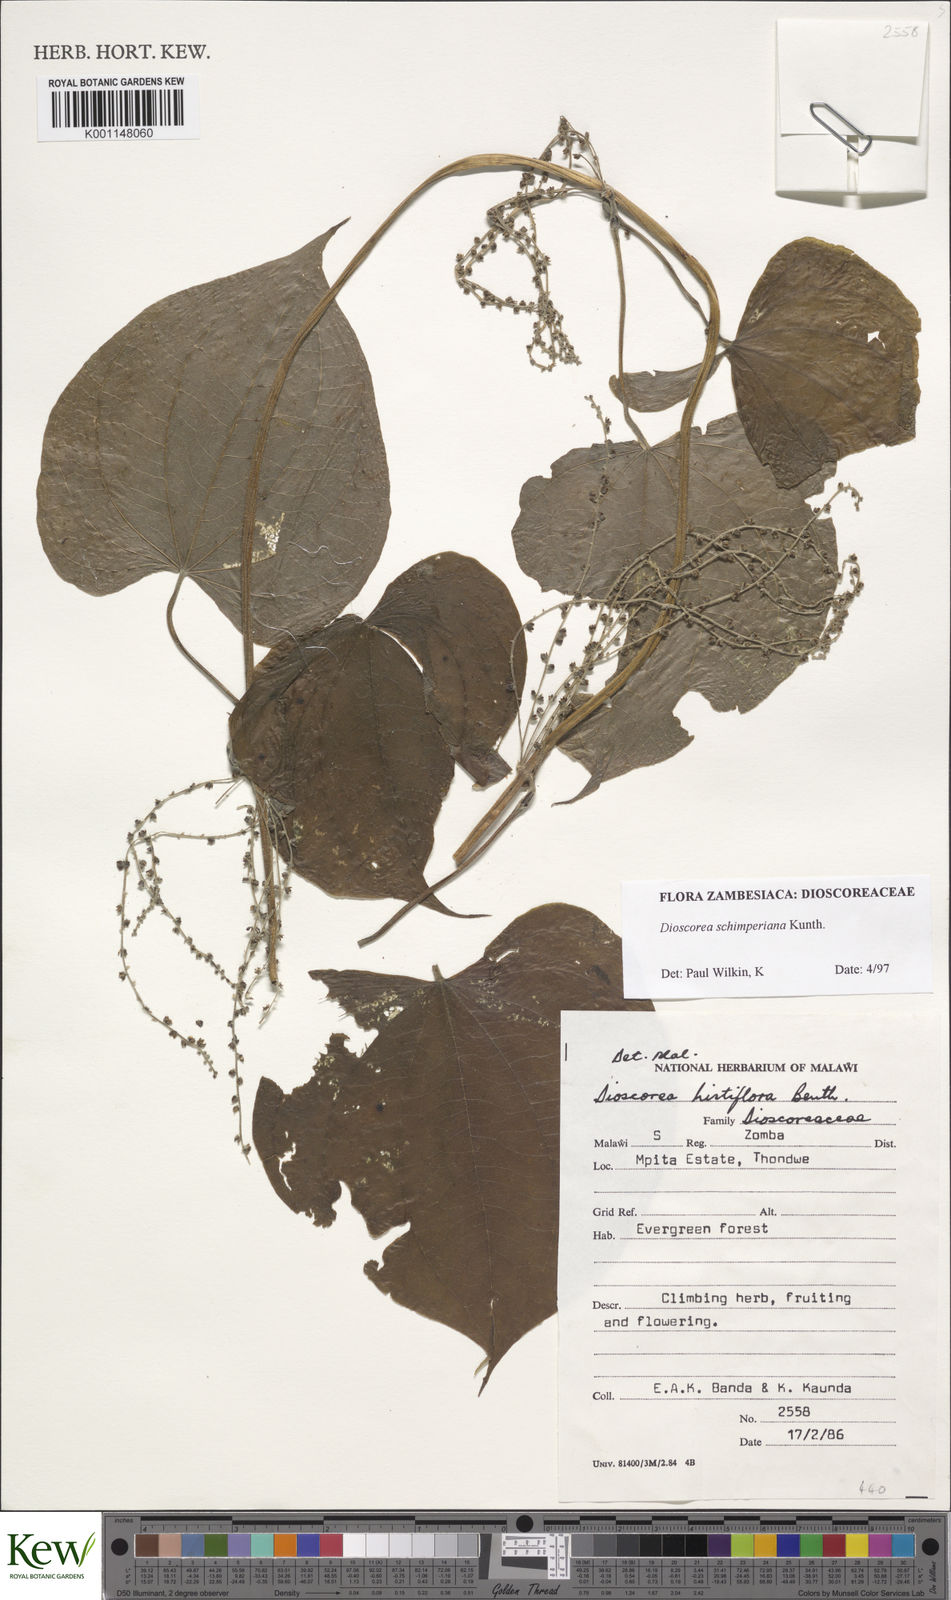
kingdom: Plantae
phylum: Tracheophyta
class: Liliopsida
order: Dioscoreales
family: Dioscoreaceae
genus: Dioscorea
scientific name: Dioscorea schimperiana
